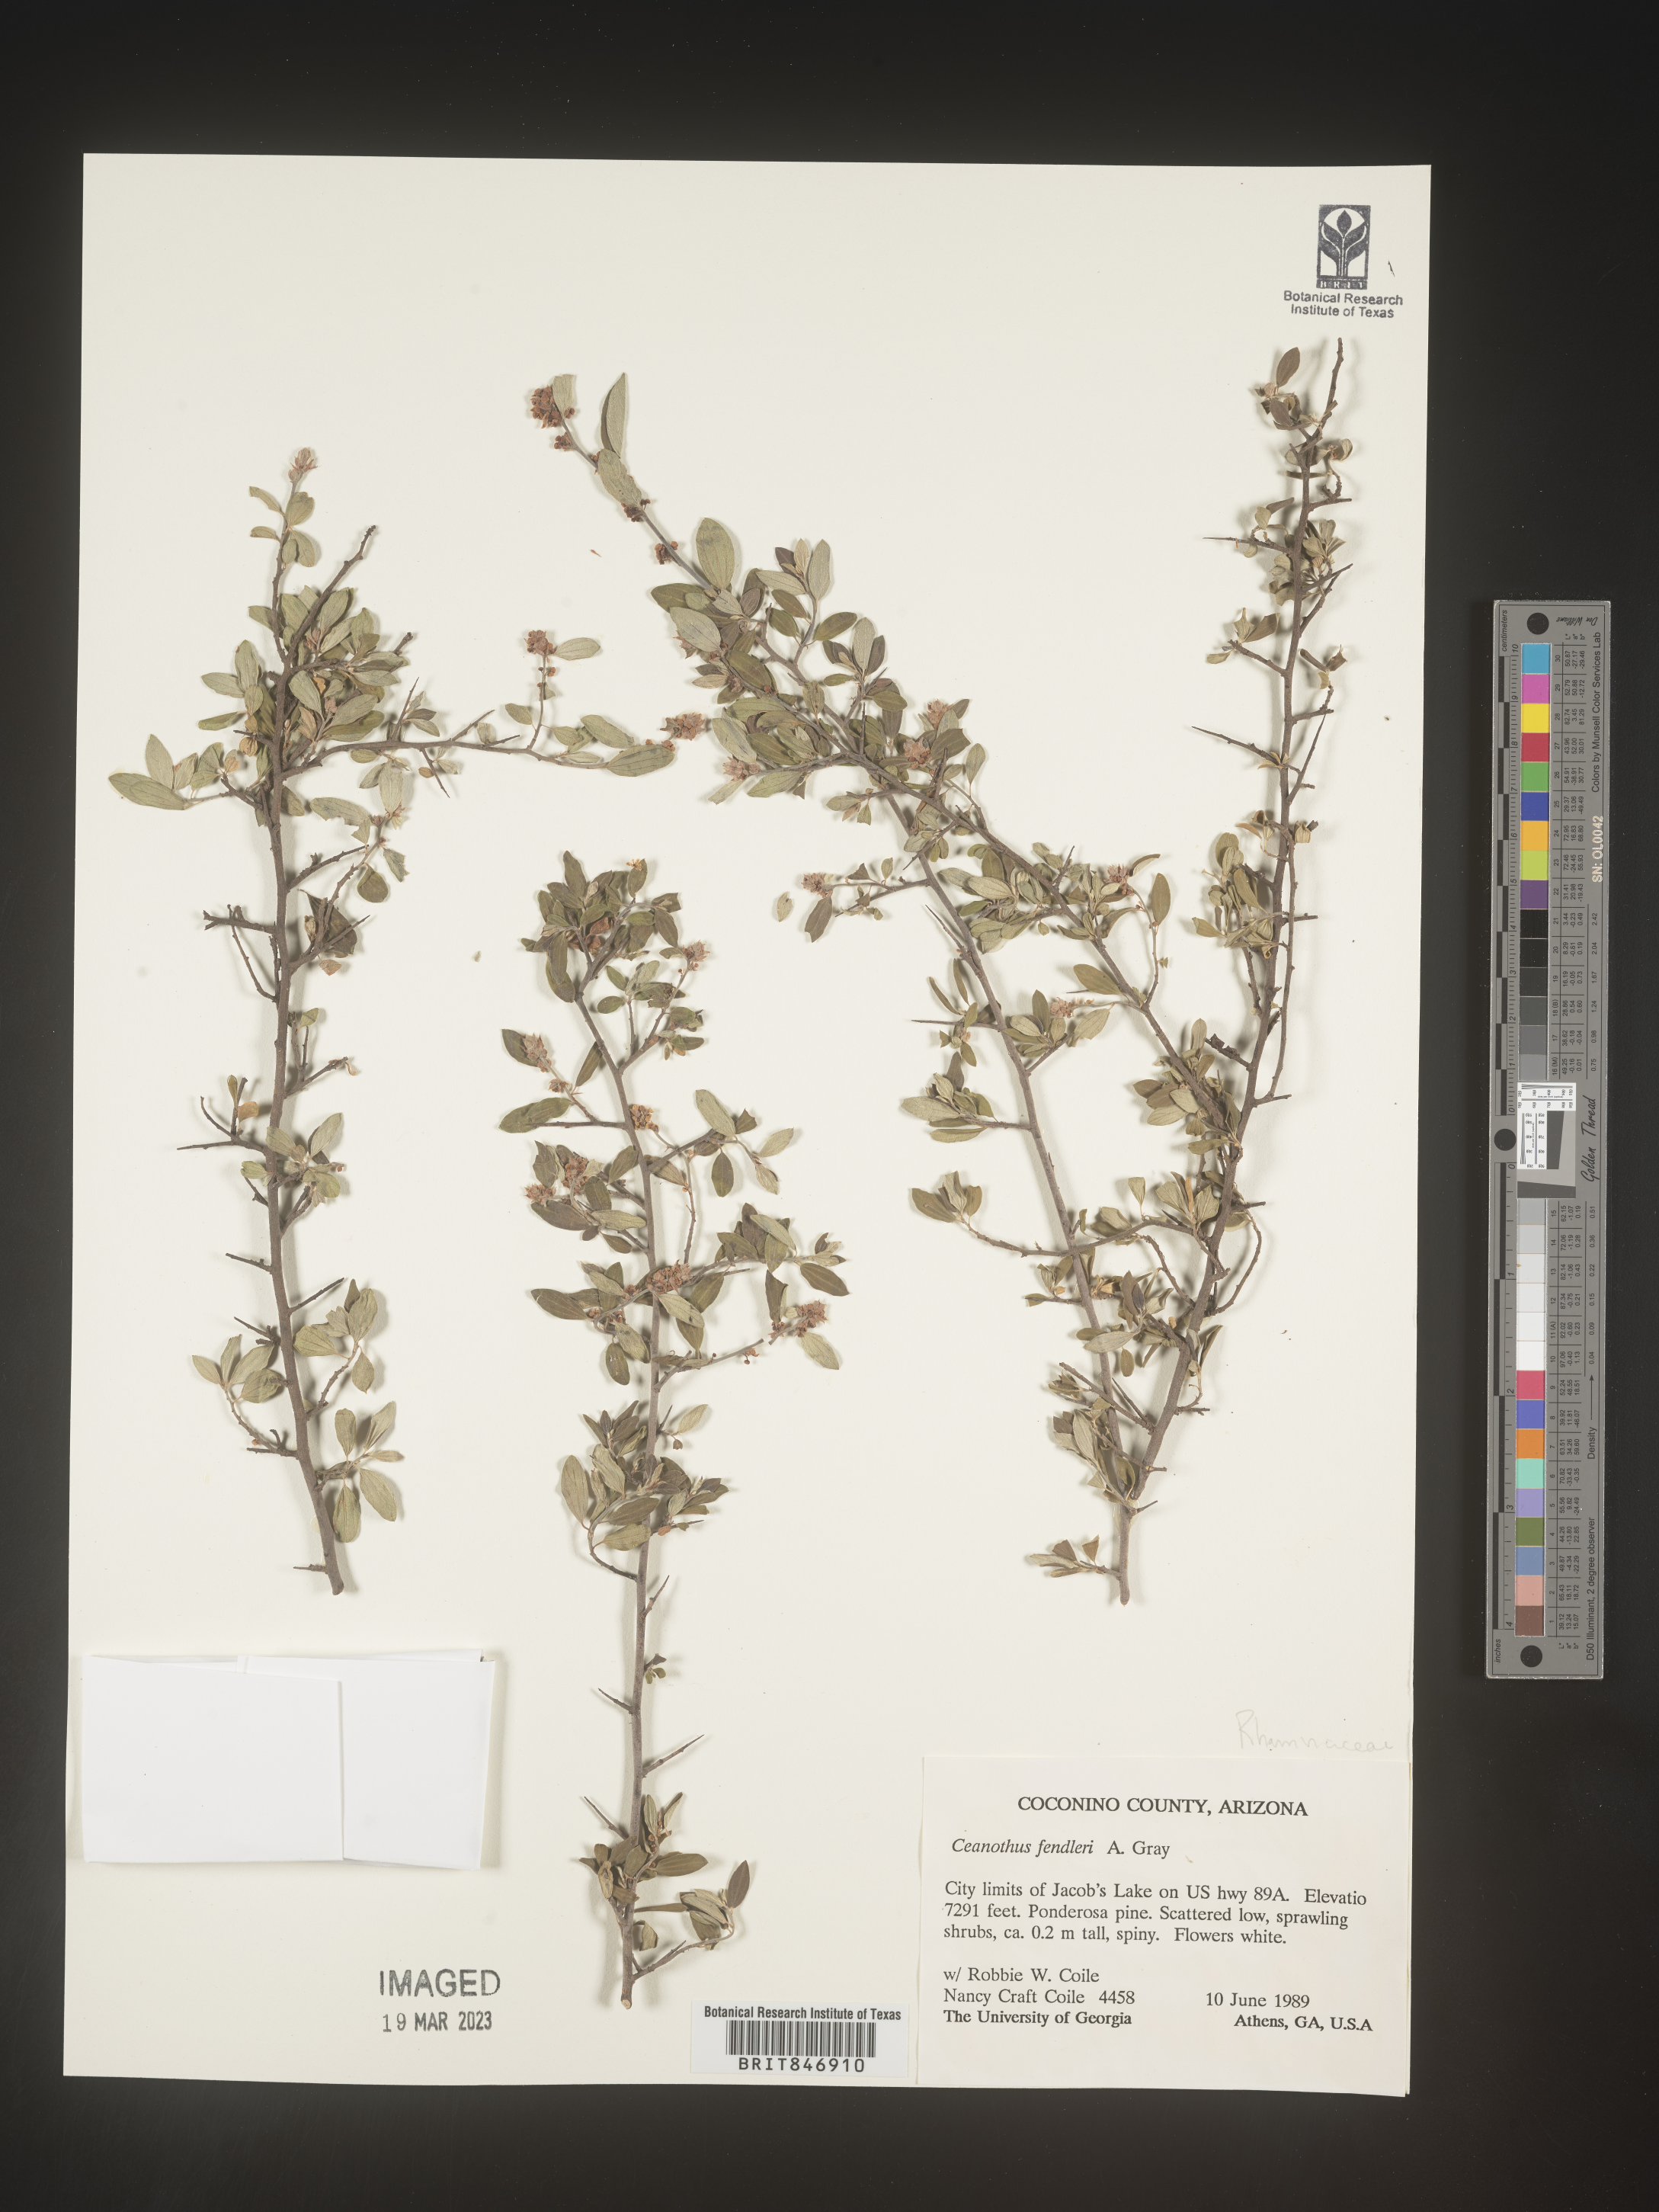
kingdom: Plantae
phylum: Tracheophyta
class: Magnoliopsida
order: Rosales
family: Rhamnaceae
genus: Ceanothus
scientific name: Ceanothus fendleri
